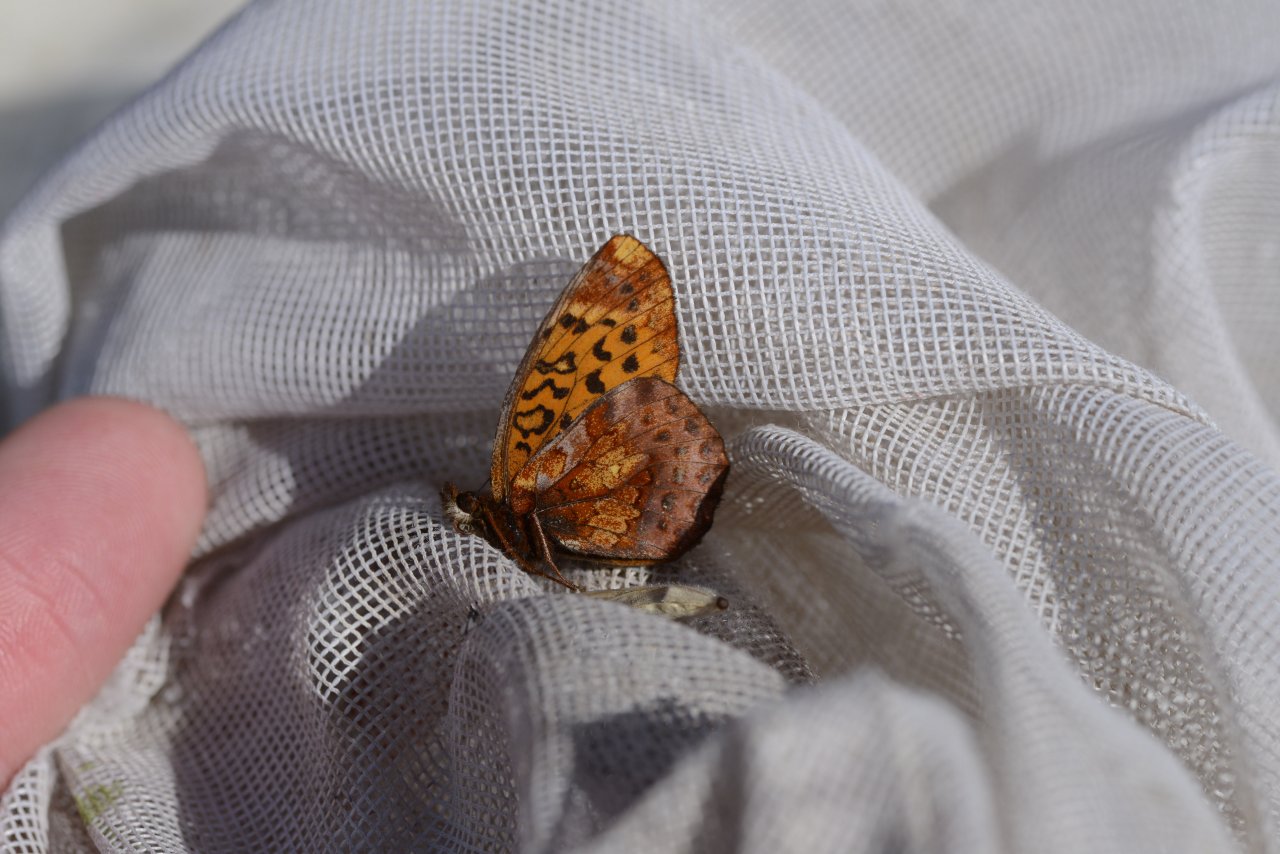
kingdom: Animalia
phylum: Arthropoda
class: Insecta
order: Lepidoptera
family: Nymphalidae
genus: Clossiana
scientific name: Clossiana toddi
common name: Meadow Fritillary
